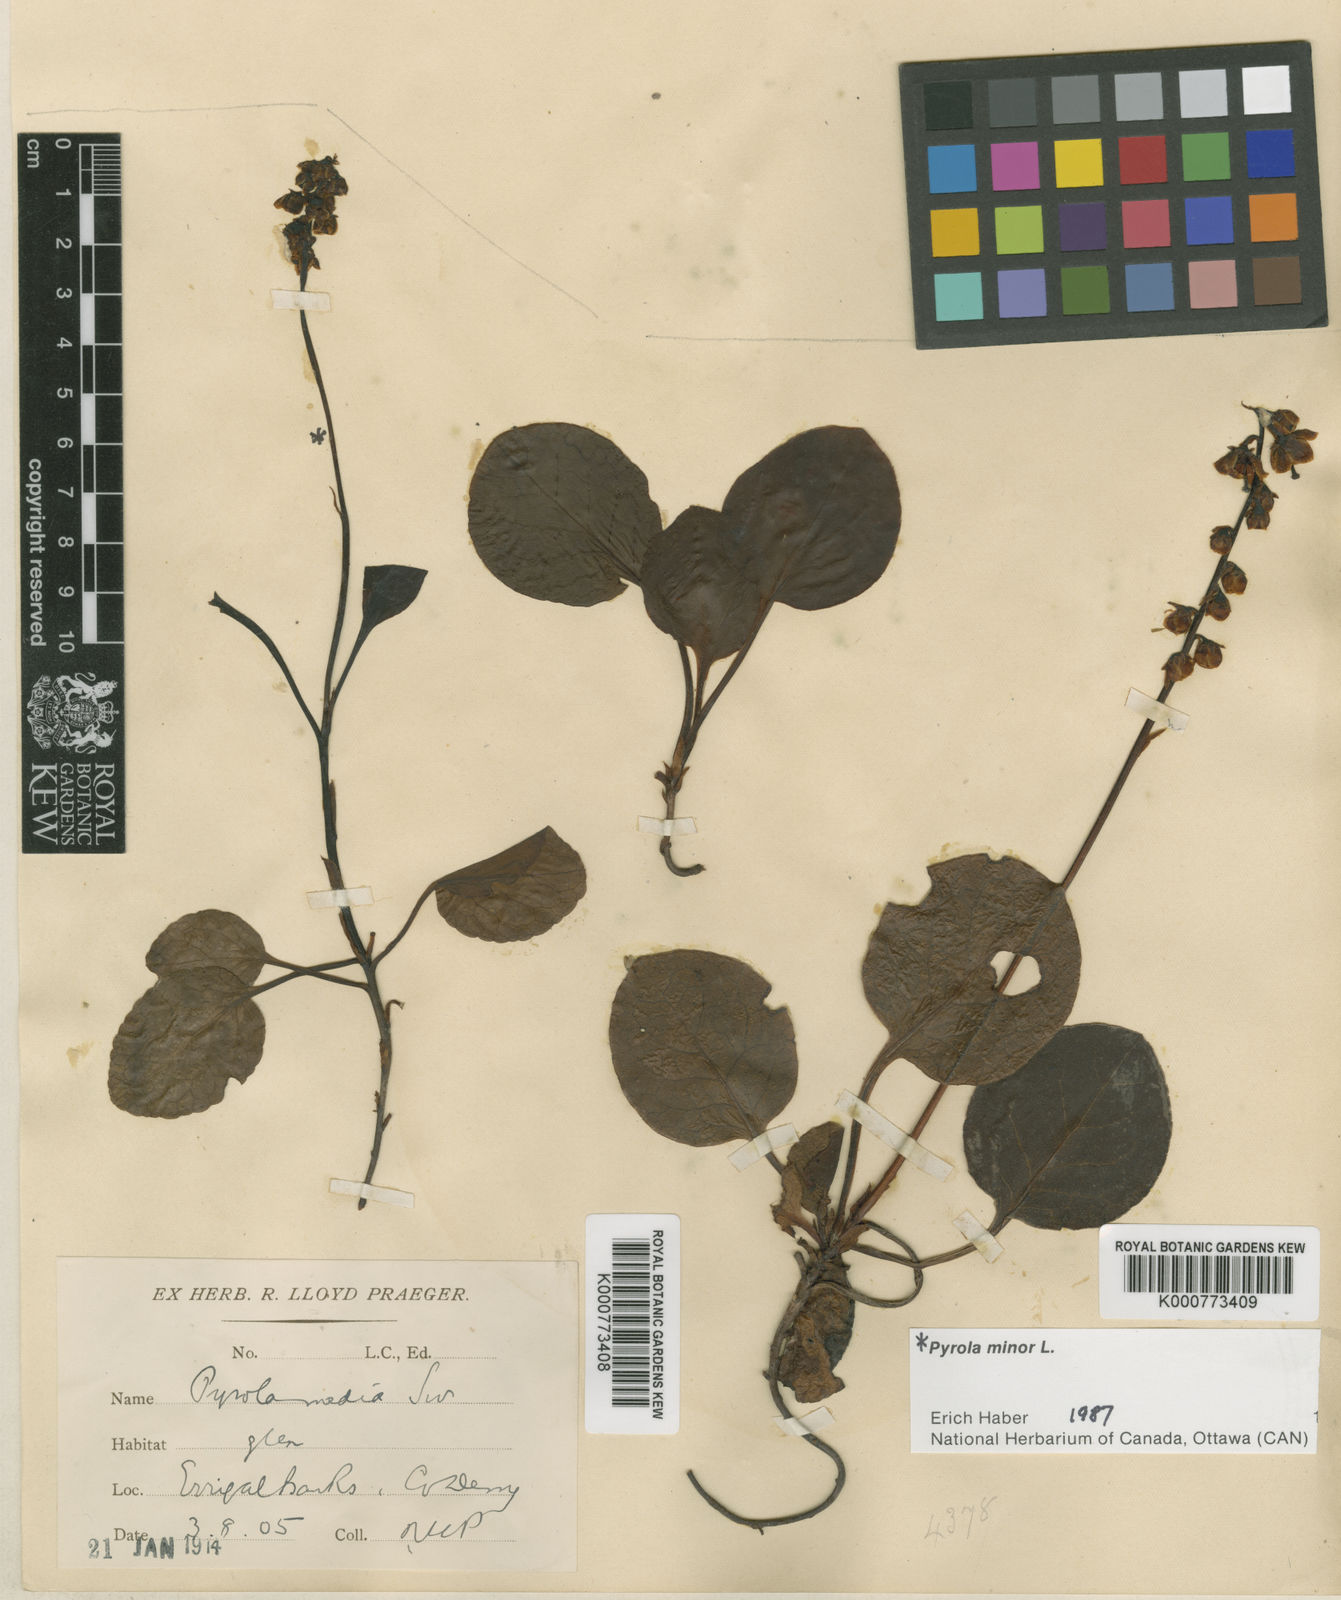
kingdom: Plantae
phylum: Tracheophyta
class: Magnoliopsida
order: Ericales
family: Ericaceae
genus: Pyrola
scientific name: Pyrola media
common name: Intermediate wintergreen
